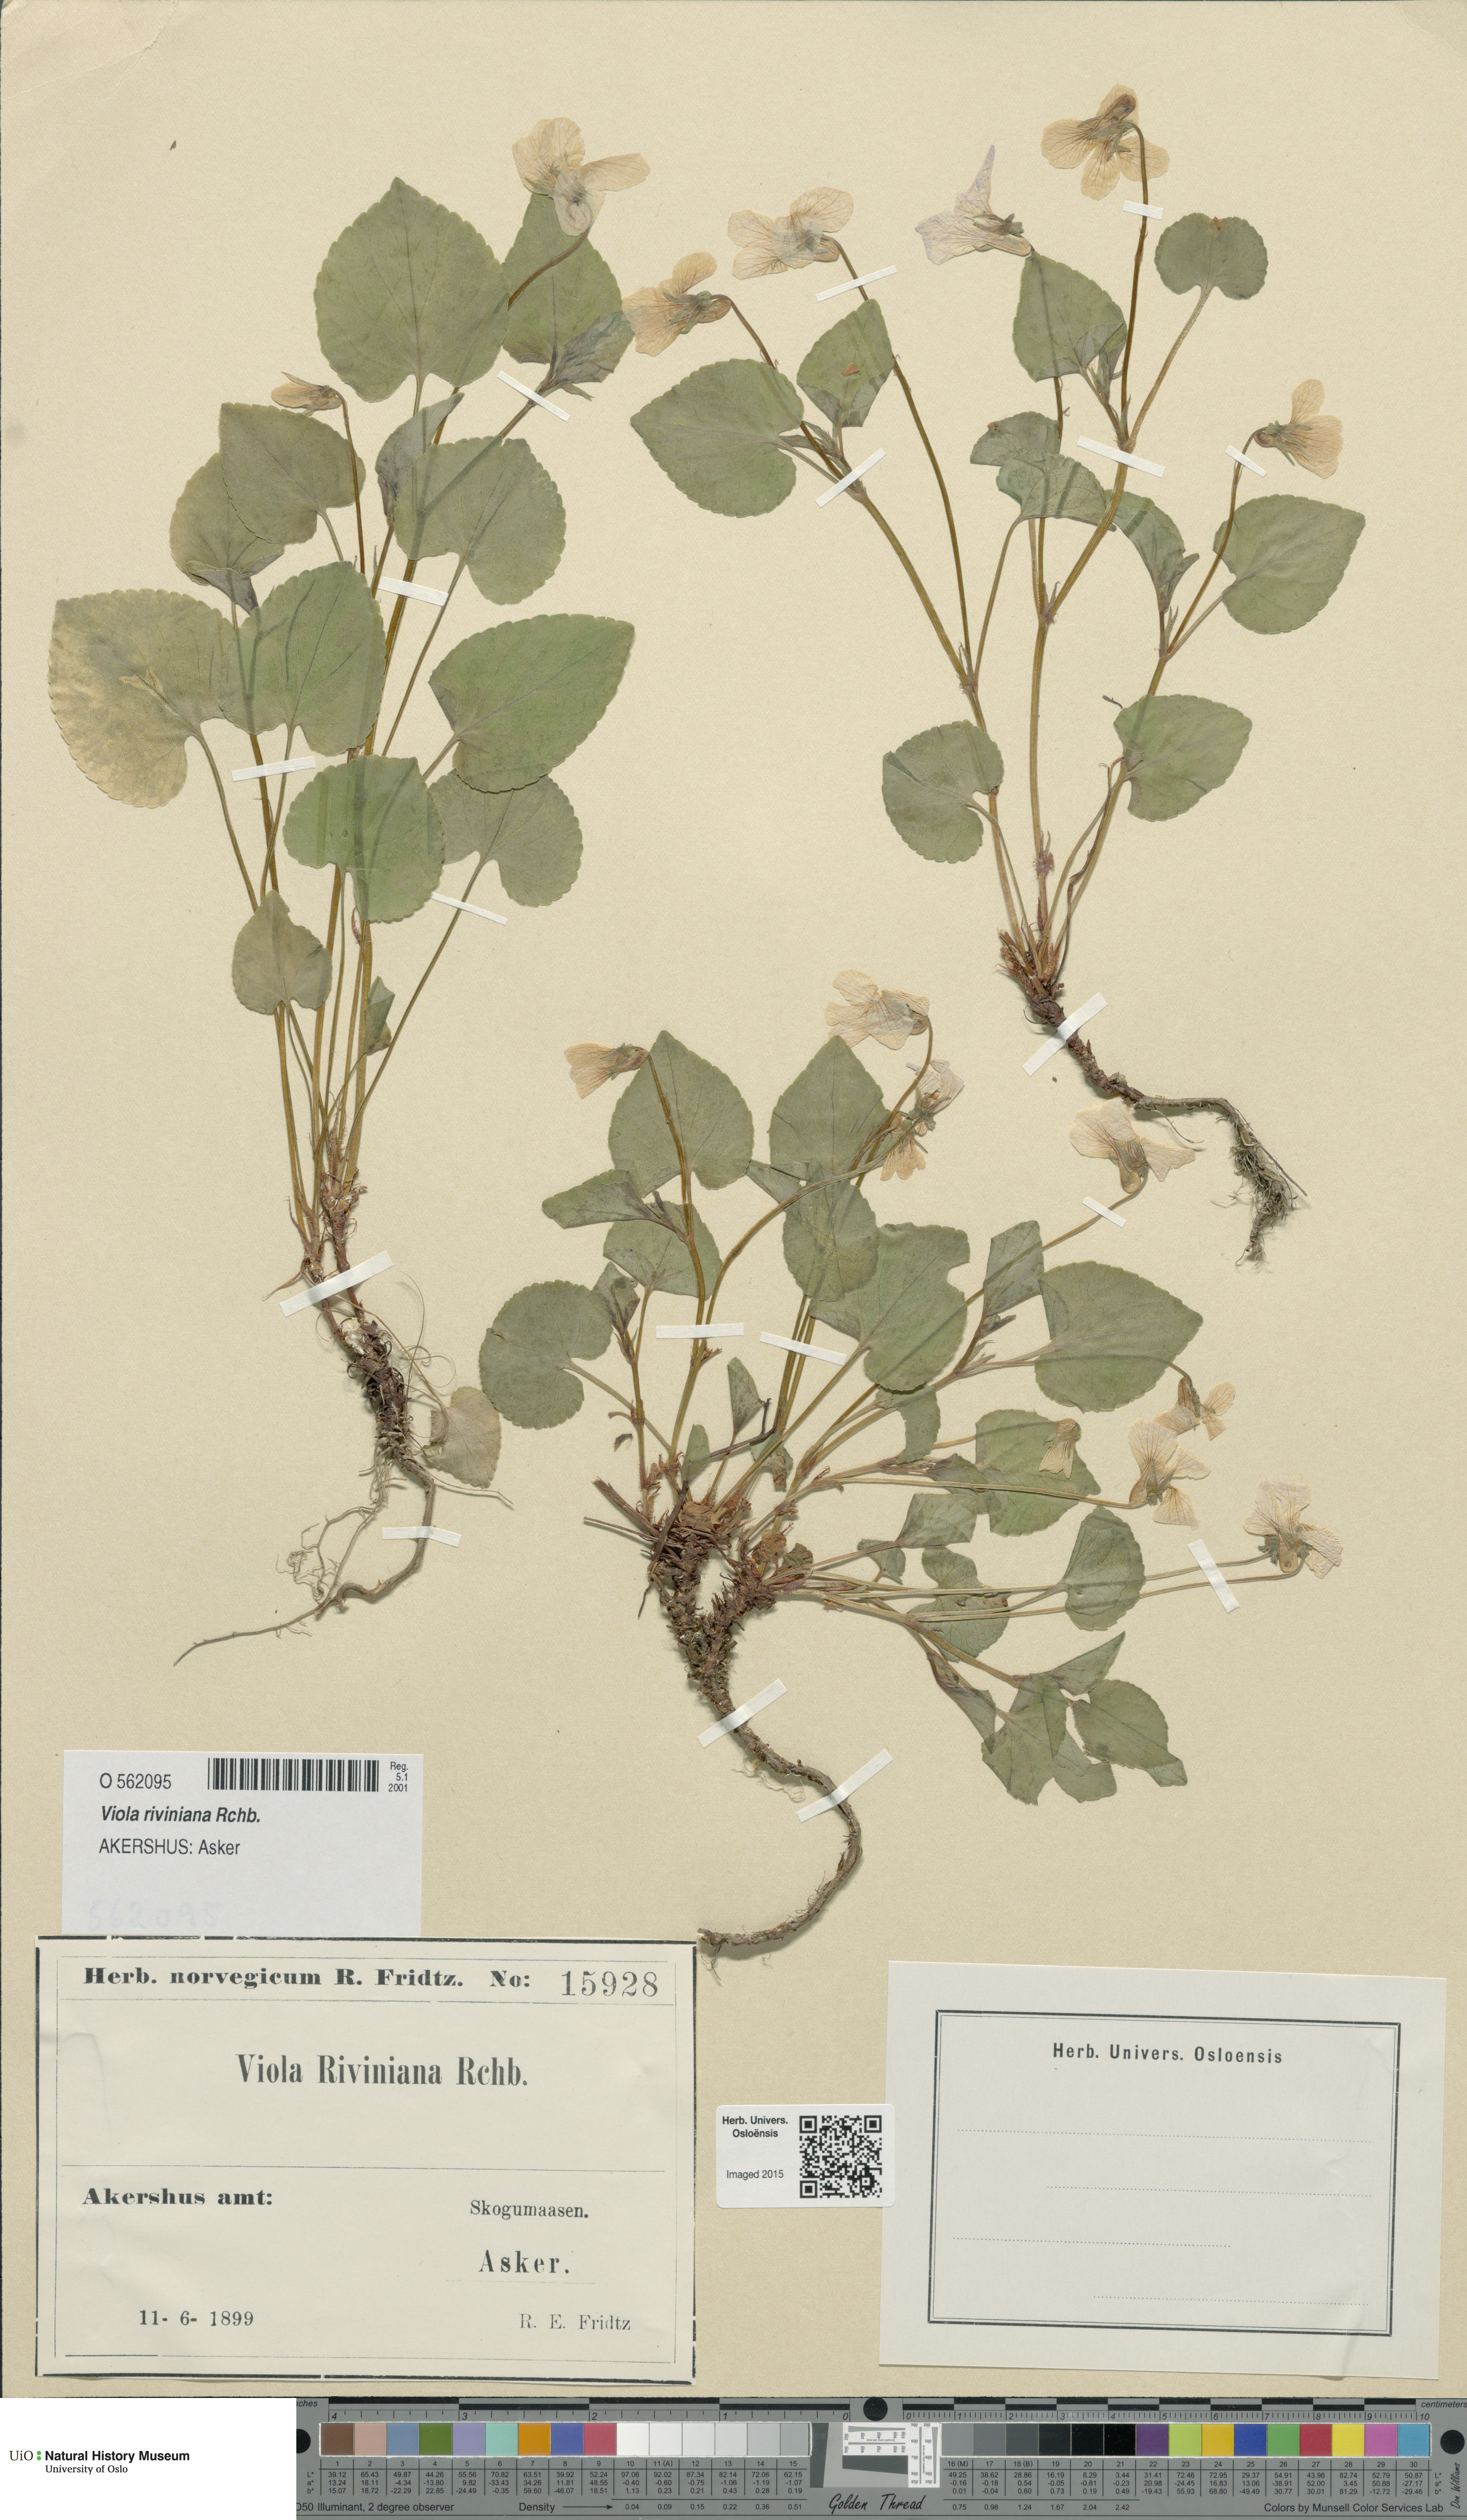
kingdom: Plantae
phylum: Tracheophyta
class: Magnoliopsida
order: Malpighiales
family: Violaceae
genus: Viola
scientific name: Viola riviniana
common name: Common dog-violet
